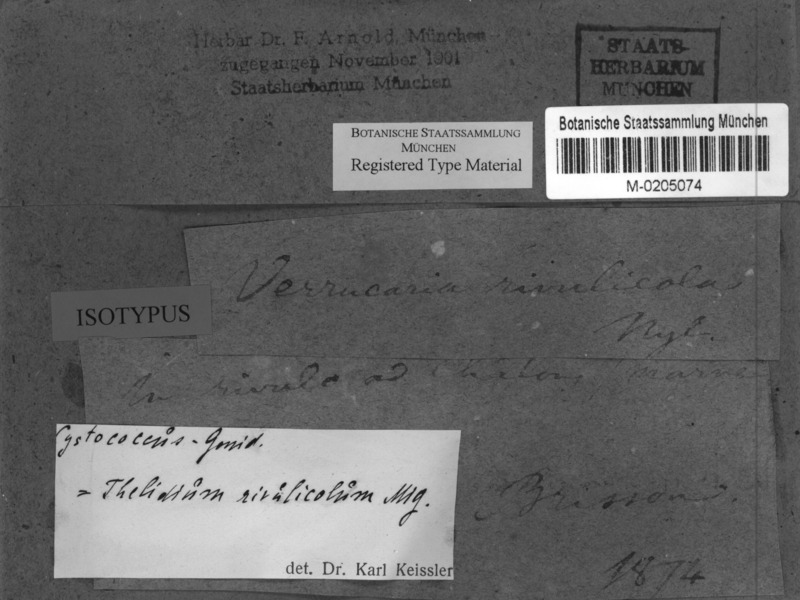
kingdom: Fungi
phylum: Ascomycota
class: Eurotiomycetes
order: Verrucariales
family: Verrucariaceae
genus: Thelidium
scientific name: Thelidium rivulicolum
